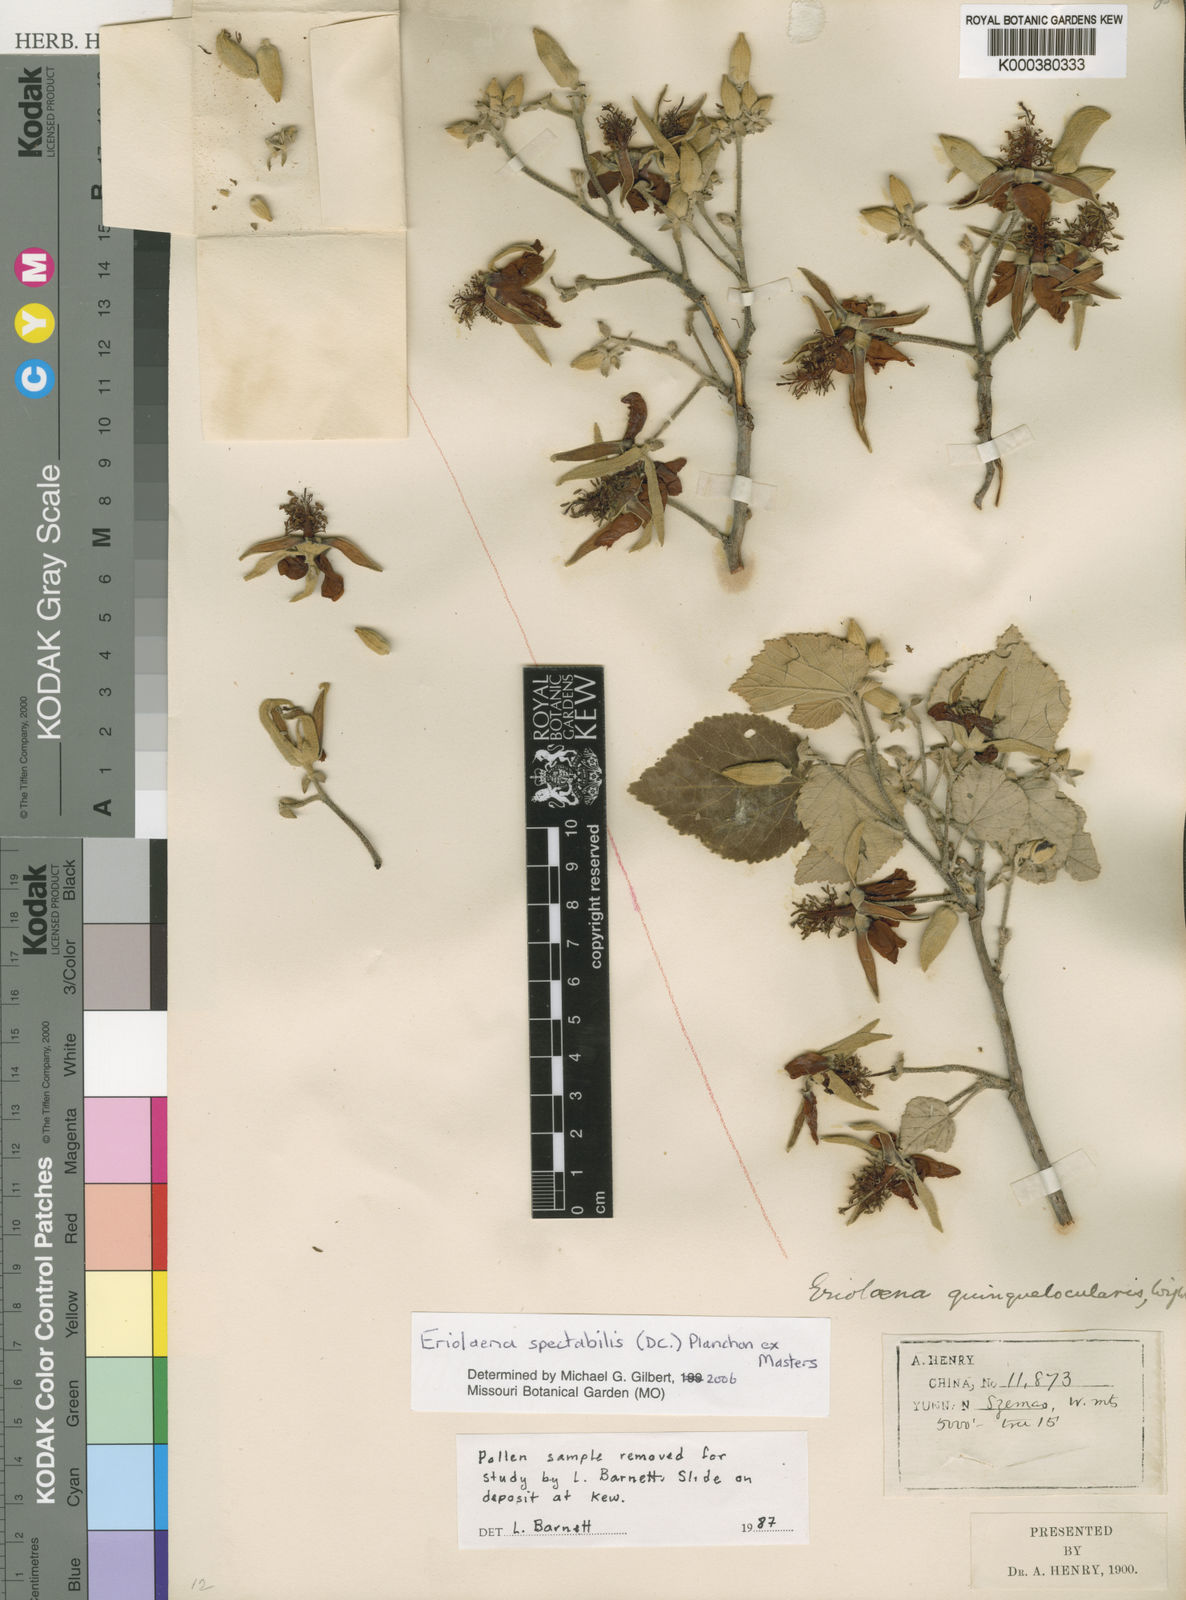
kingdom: Plantae
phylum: Tracheophyta
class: Magnoliopsida
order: Malvales
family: Malvaceae
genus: Eriolaena
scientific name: Eriolaena
